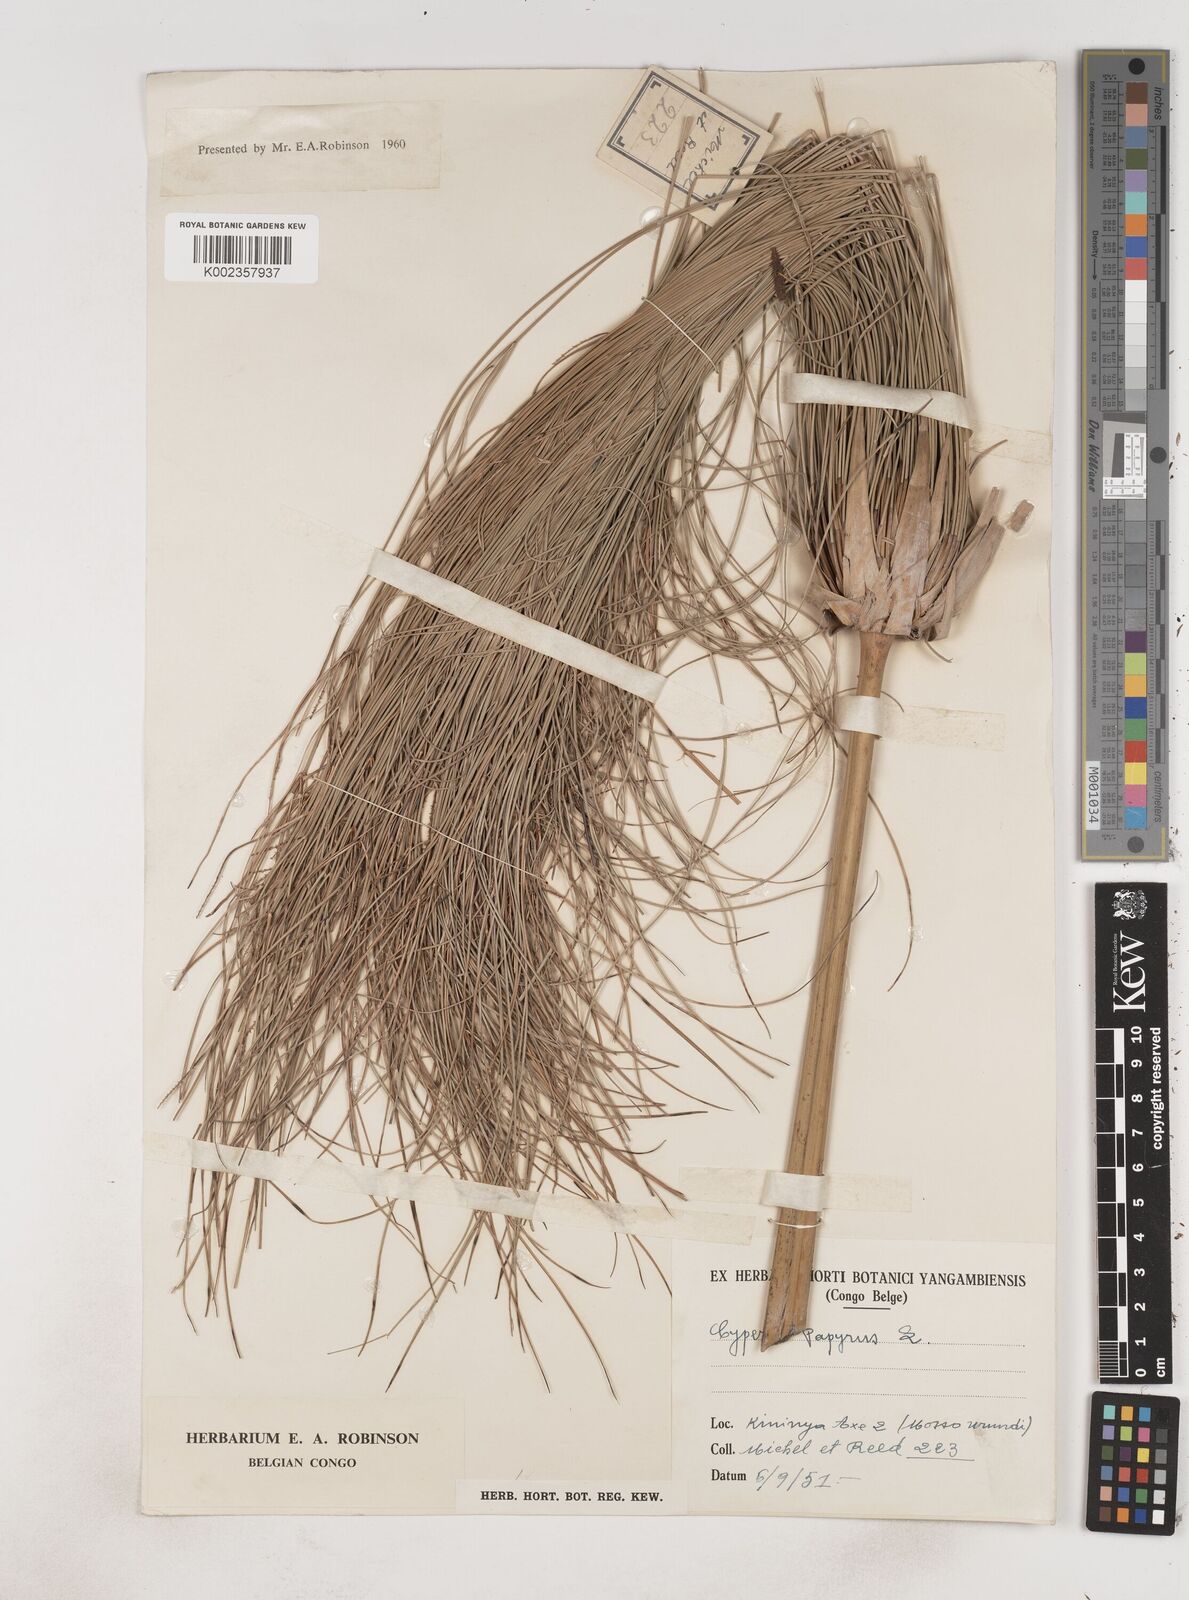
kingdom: Plantae
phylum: Tracheophyta
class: Liliopsida
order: Poales
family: Cyperaceae
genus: Cyperus
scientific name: Cyperus papyrus
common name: Papyrus
